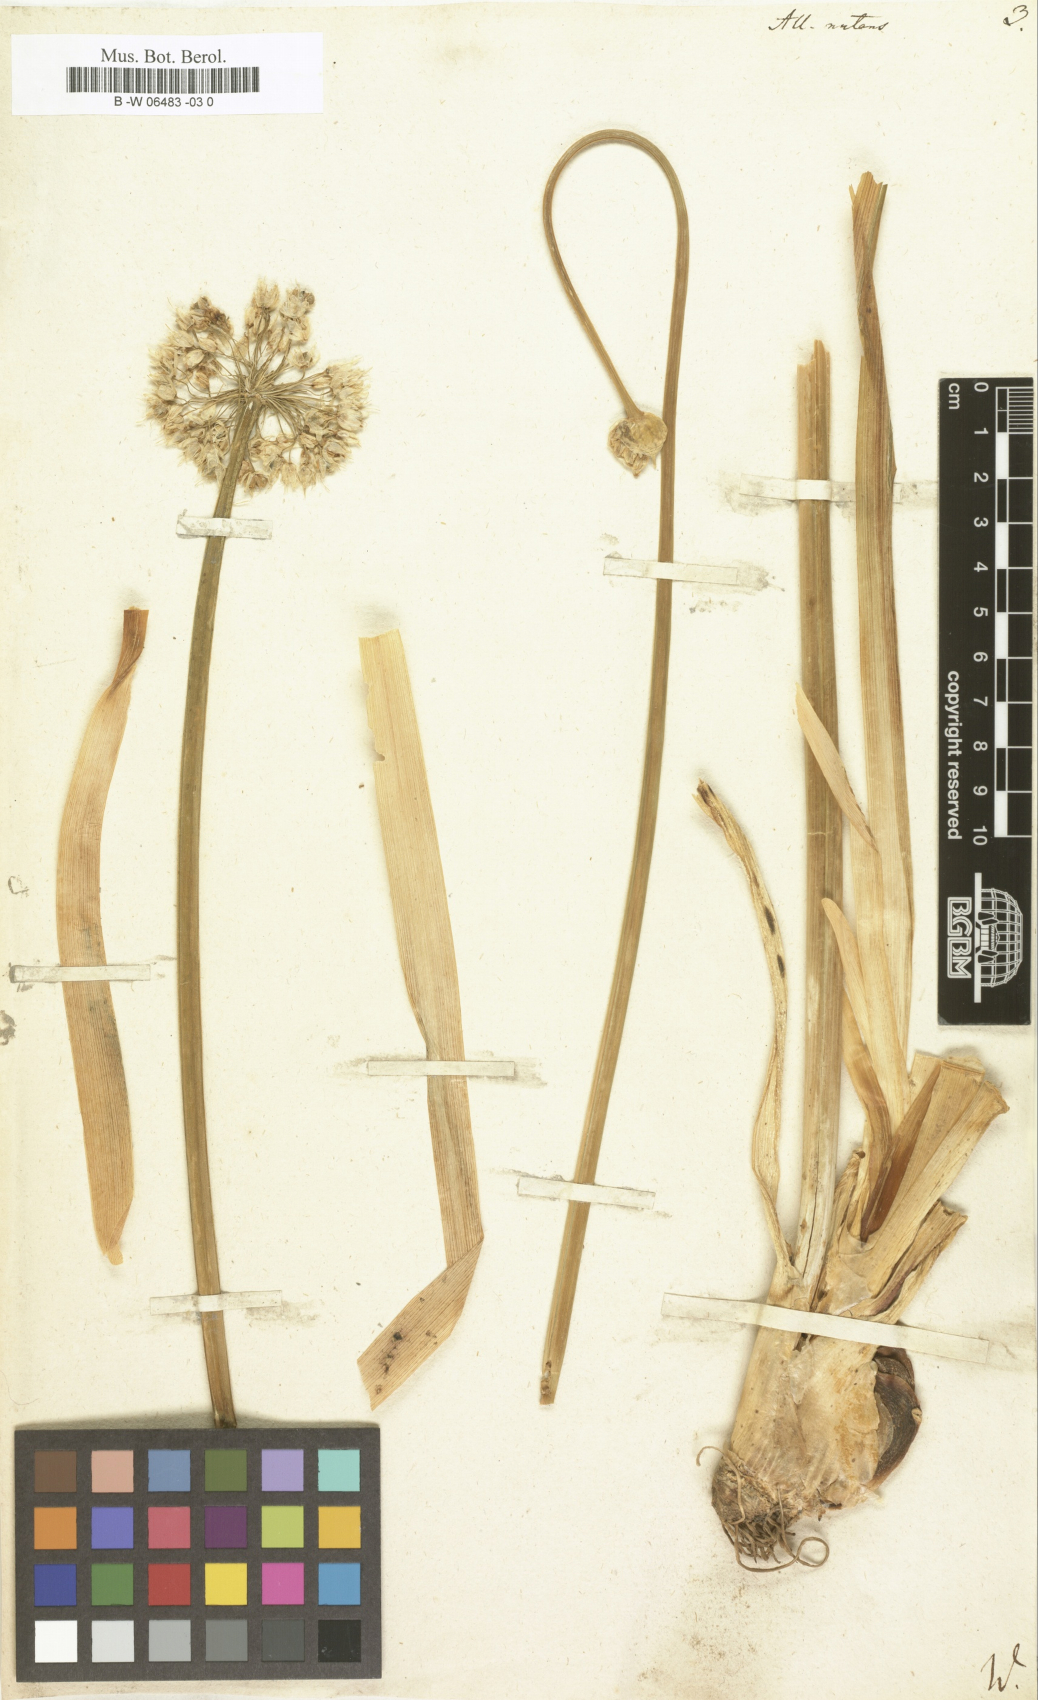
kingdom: Plantae
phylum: Tracheophyta
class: Liliopsida
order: Asparagales
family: Amaryllidaceae
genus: Allium
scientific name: Allium nutans
